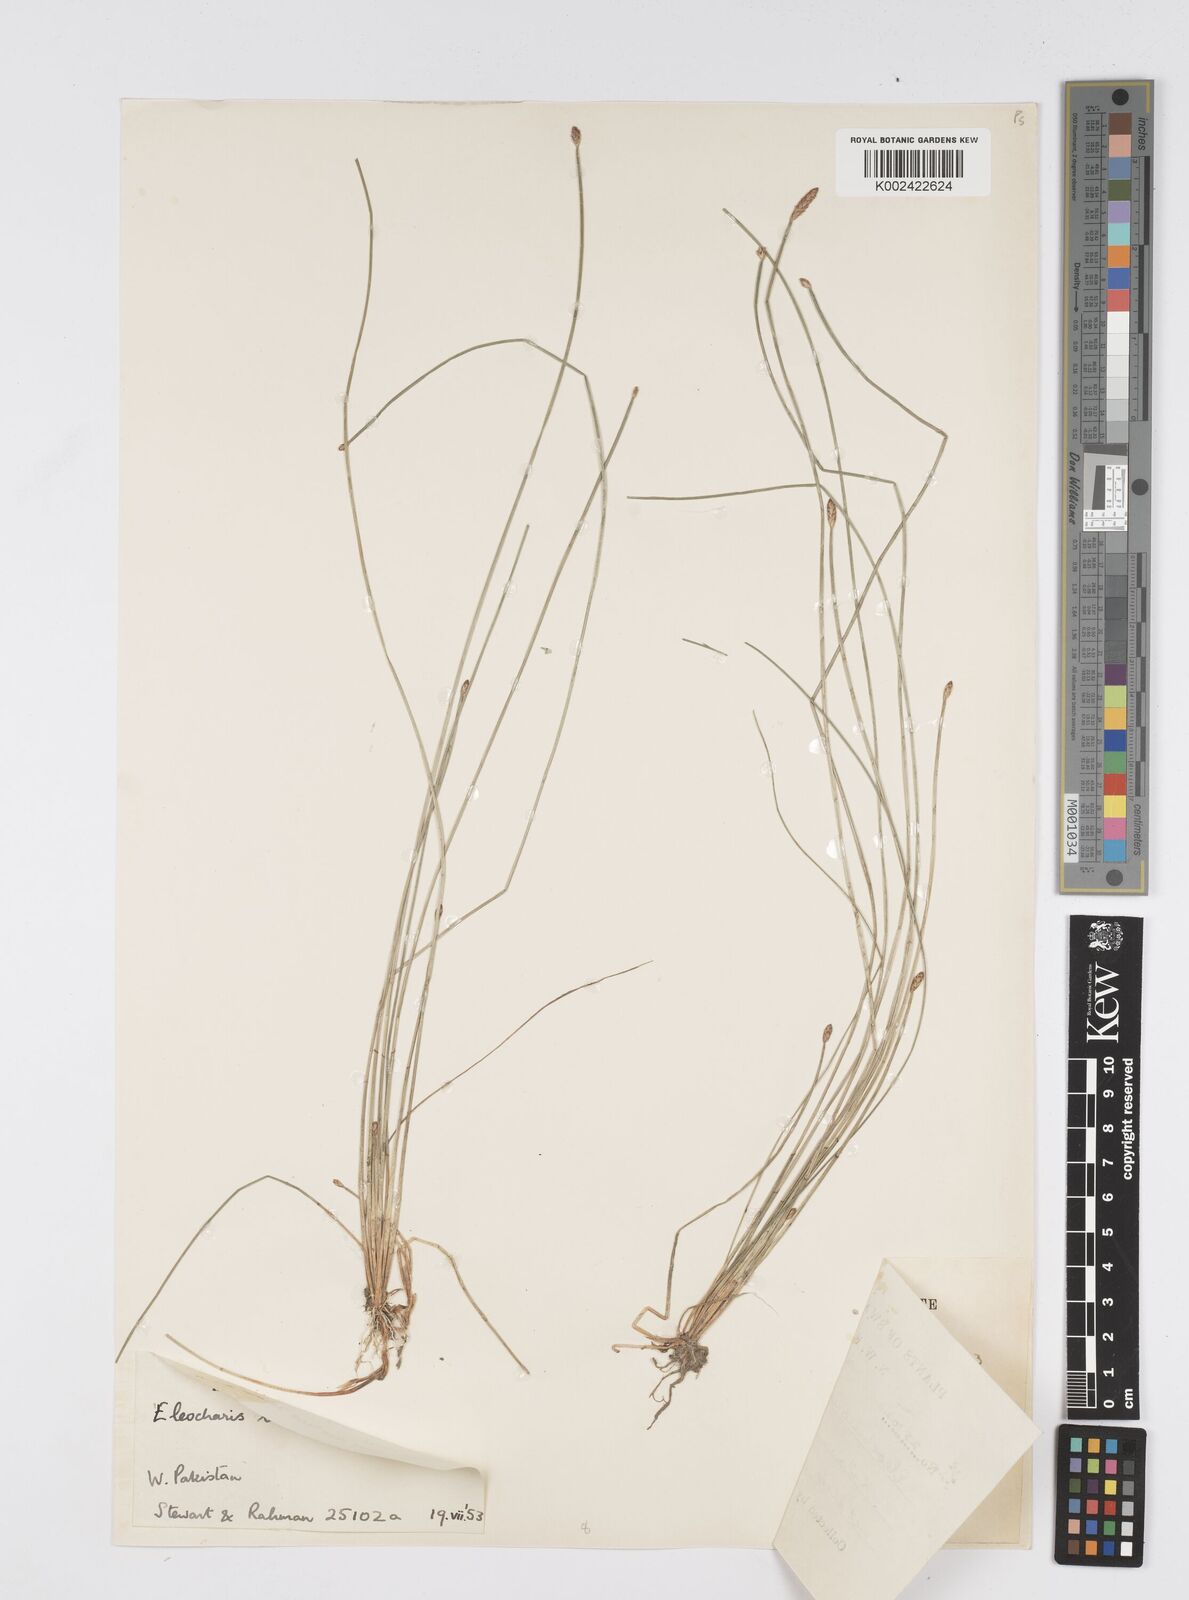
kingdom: Plantae
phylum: Tracheophyta
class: Liliopsida
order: Poales
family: Cyperaceae
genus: Eleocharis
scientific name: Eleocharis tetraquetra
